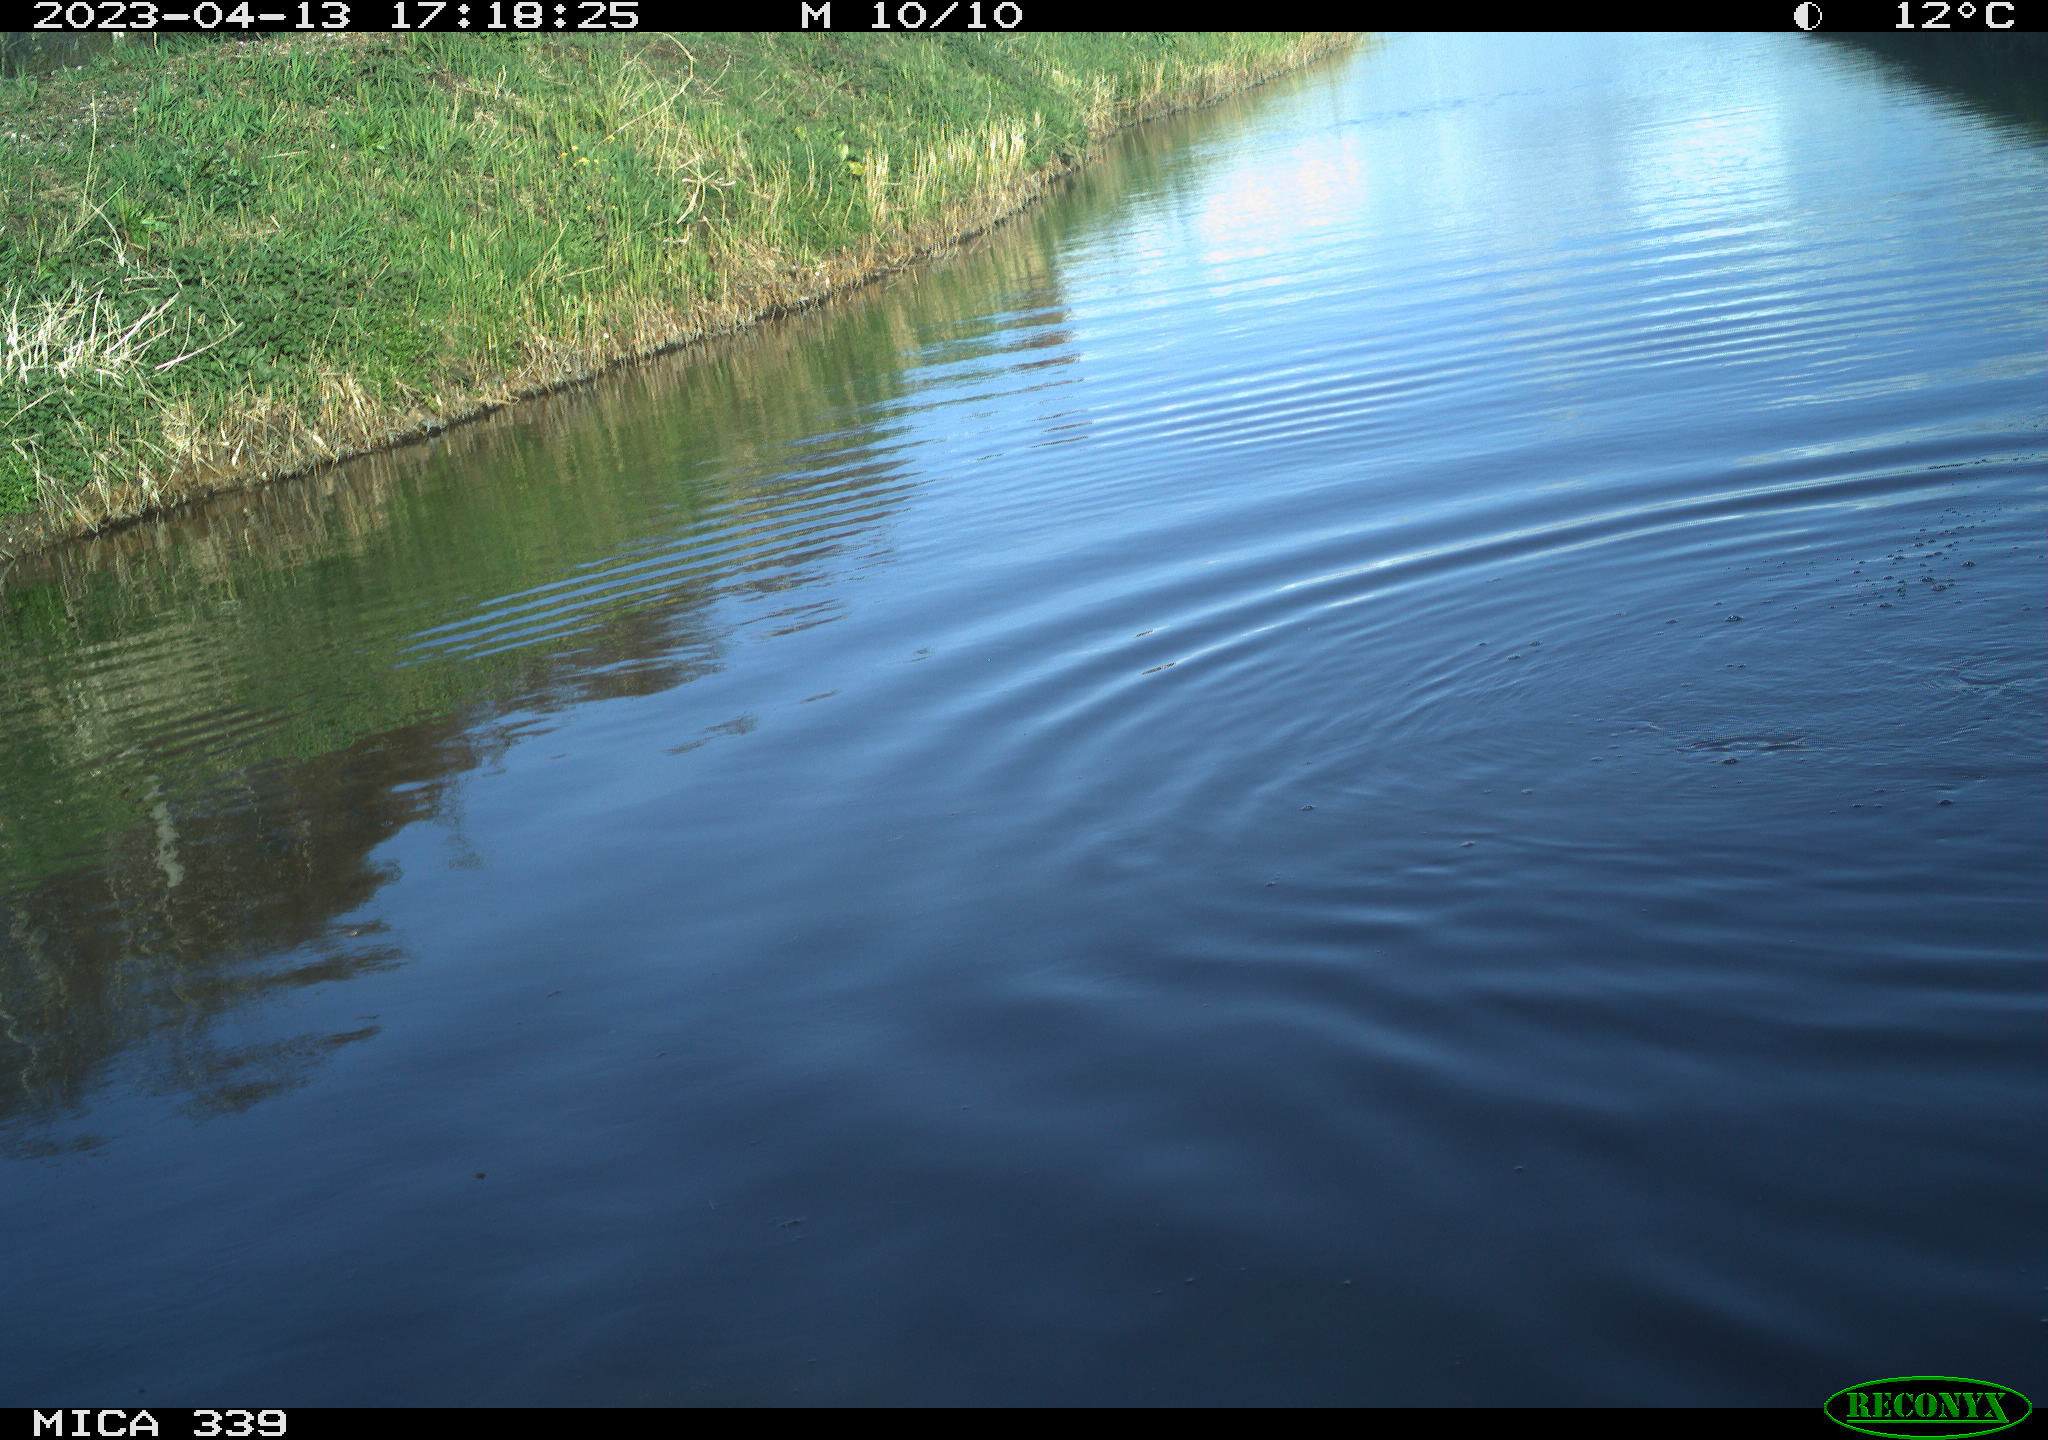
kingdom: Animalia
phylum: Chordata
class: Aves
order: Suliformes
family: Phalacrocoracidae
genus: Phalacrocorax
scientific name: Phalacrocorax carbo
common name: Great cormorant
